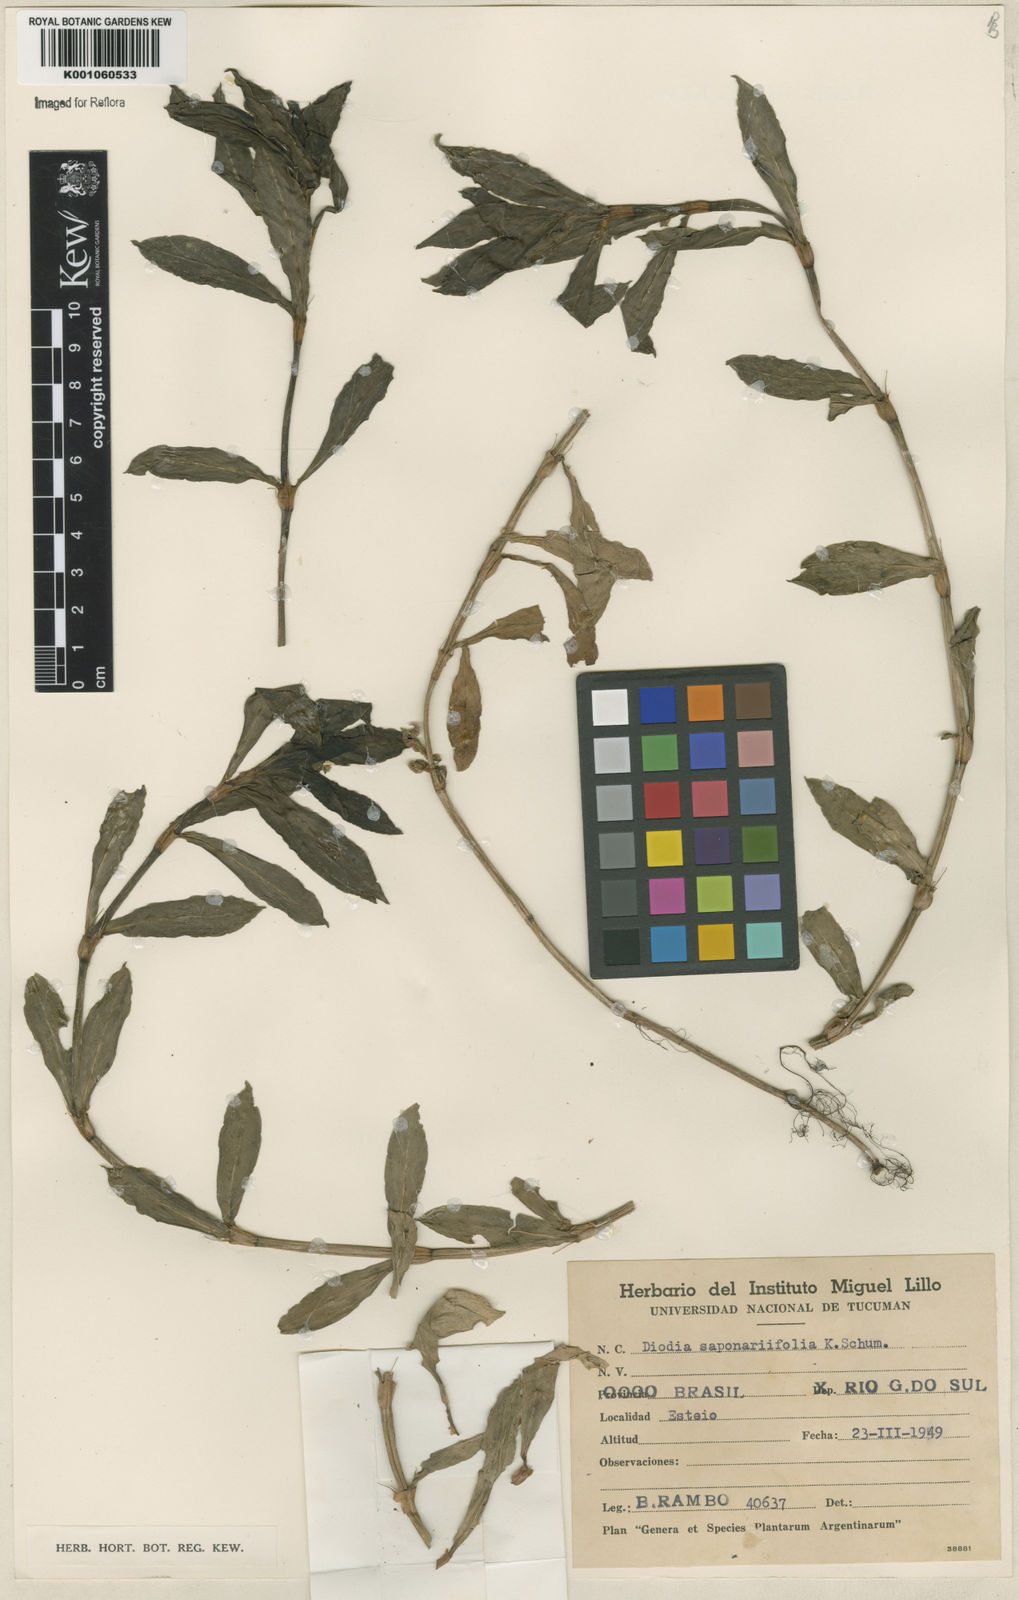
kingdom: Plantae
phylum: Tracheophyta
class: Magnoliopsida
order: Gentianales
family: Rubiaceae
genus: Diodia
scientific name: Diodia saponariifolia
